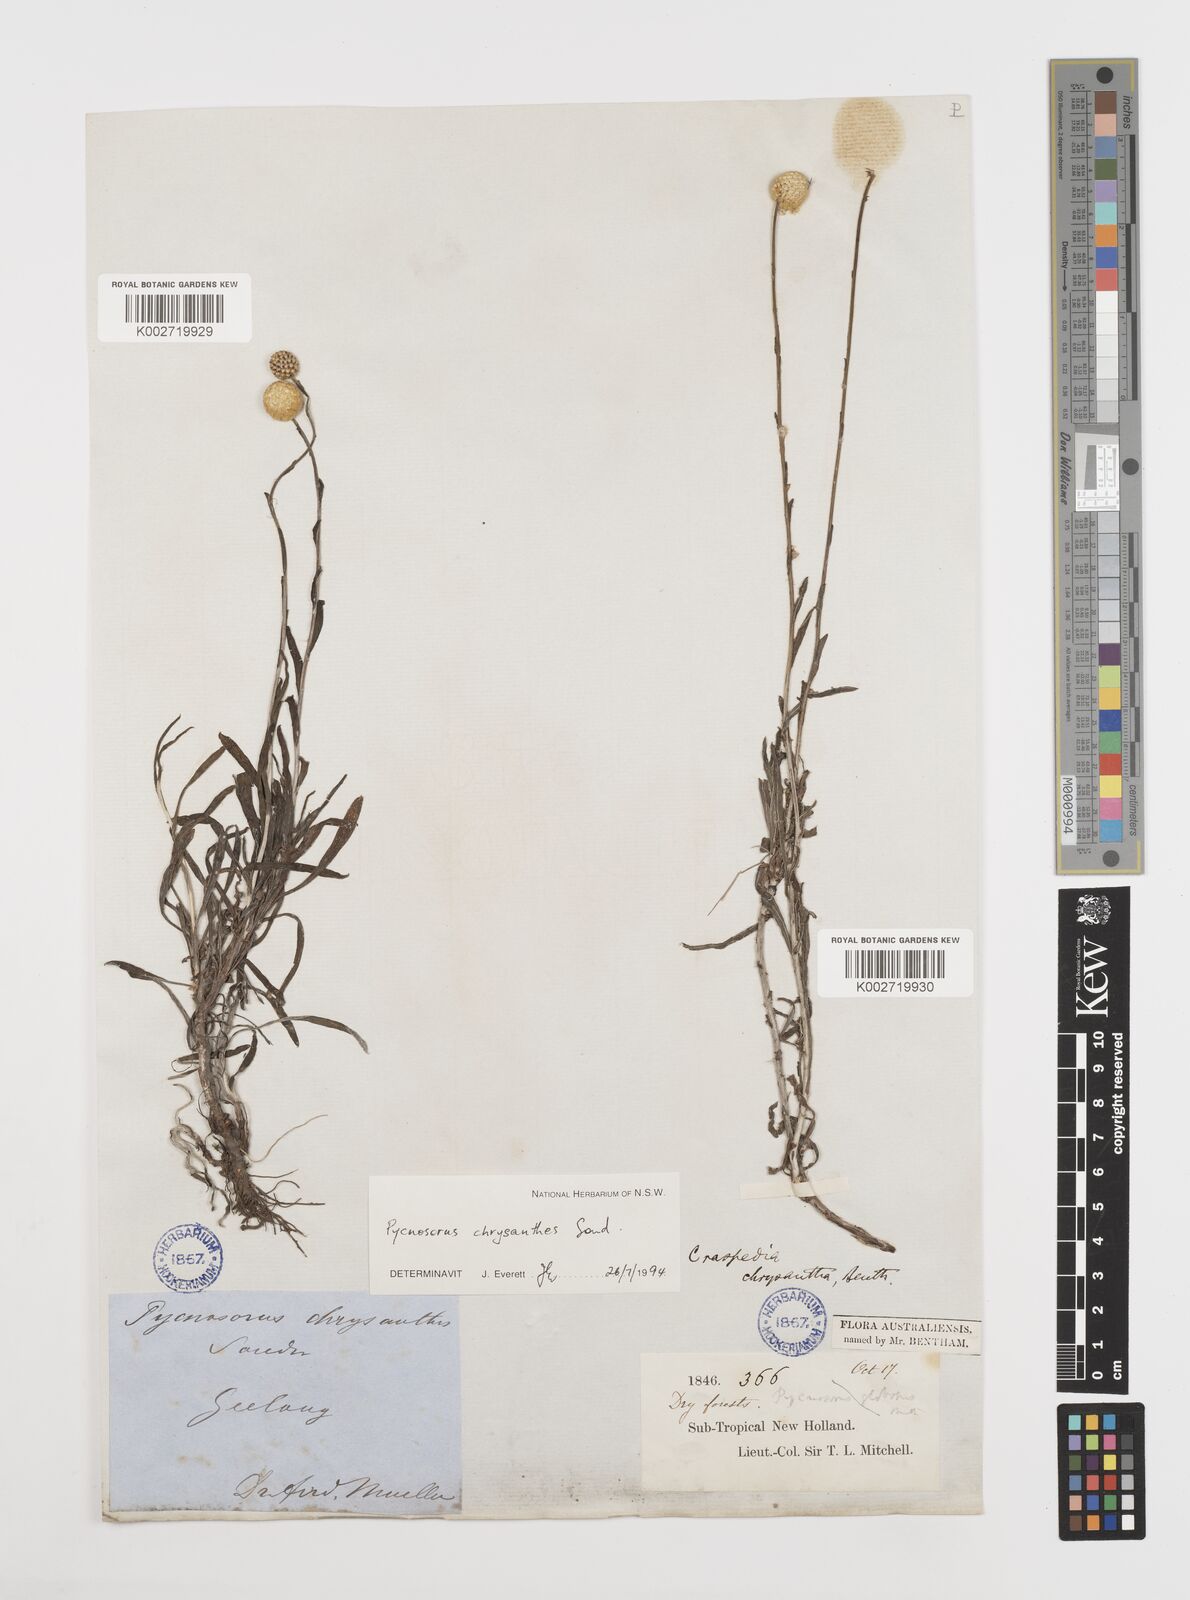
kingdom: Plantae
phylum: Tracheophyta
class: Magnoliopsida
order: Asterales
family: Asteraceae
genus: Pycnosorus
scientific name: Pycnosorus chrysanthus
